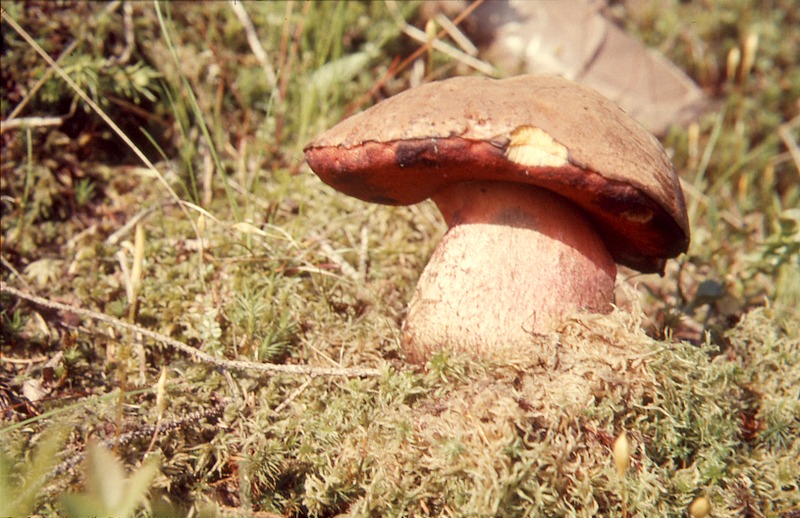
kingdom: Fungi
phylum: Basidiomycota
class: Agaricomycetes
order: Boletales
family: Boletaceae
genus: Neoboletus
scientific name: Neoboletus erythropus
